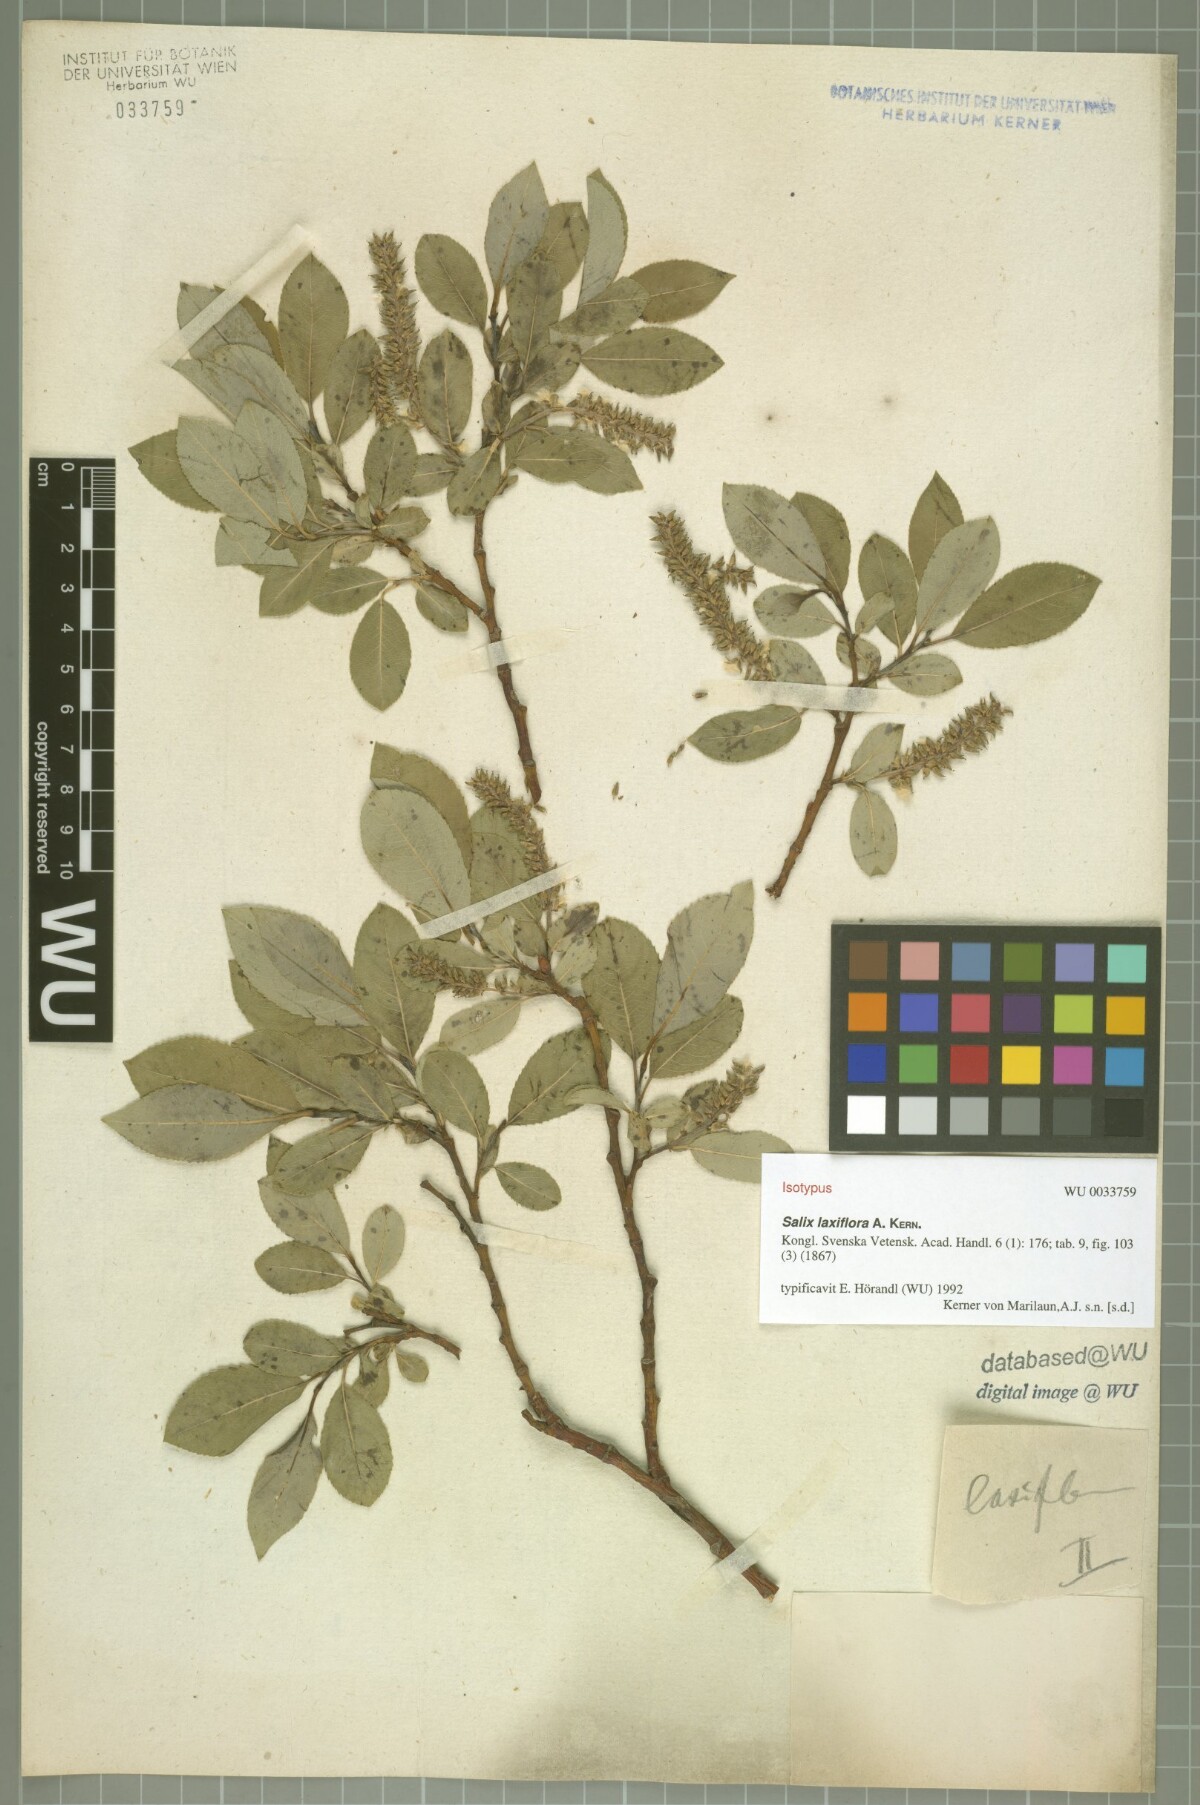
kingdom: Plantae
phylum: Tracheophyta
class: Magnoliopsida
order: Malpighiales
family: Salicaceae
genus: Salix
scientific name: Salix glabra
